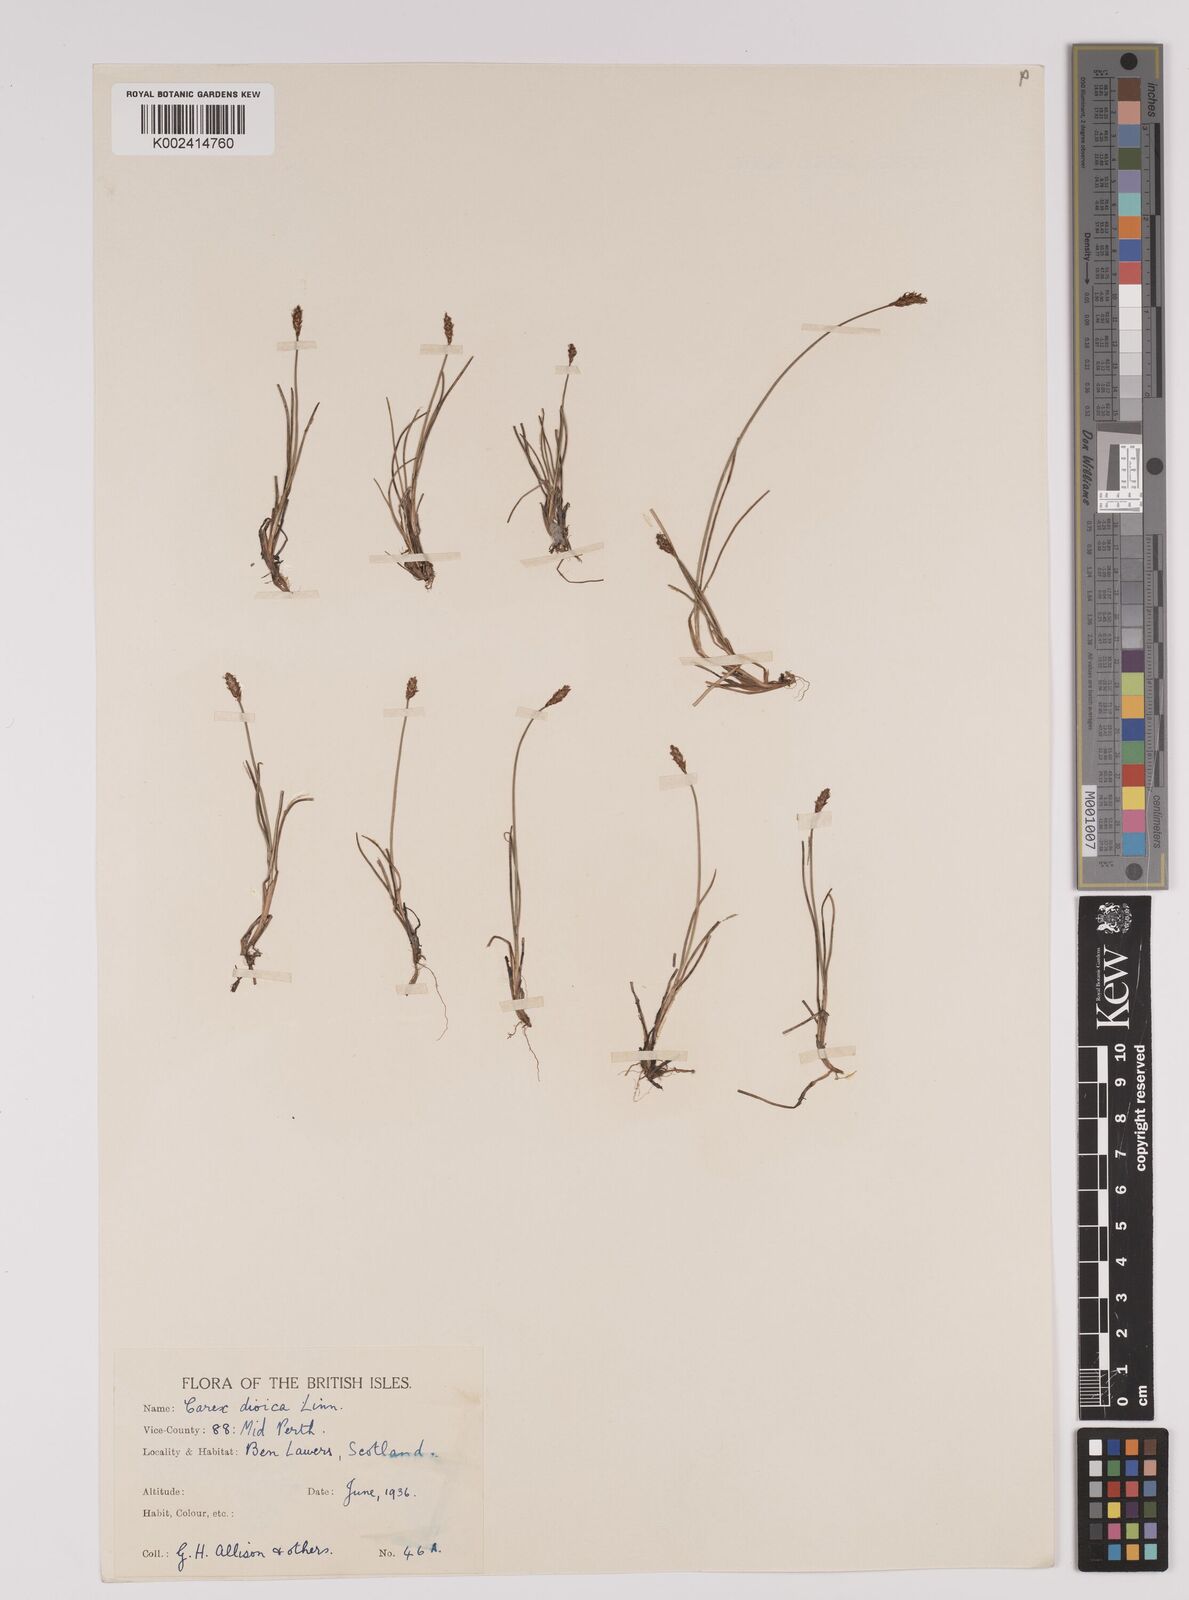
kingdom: Plantae
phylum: Tracheophyta
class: Liliopsida
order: Poales
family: Cyperaceae
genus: Carex
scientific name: Carex dioica
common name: Dioecious sedge
